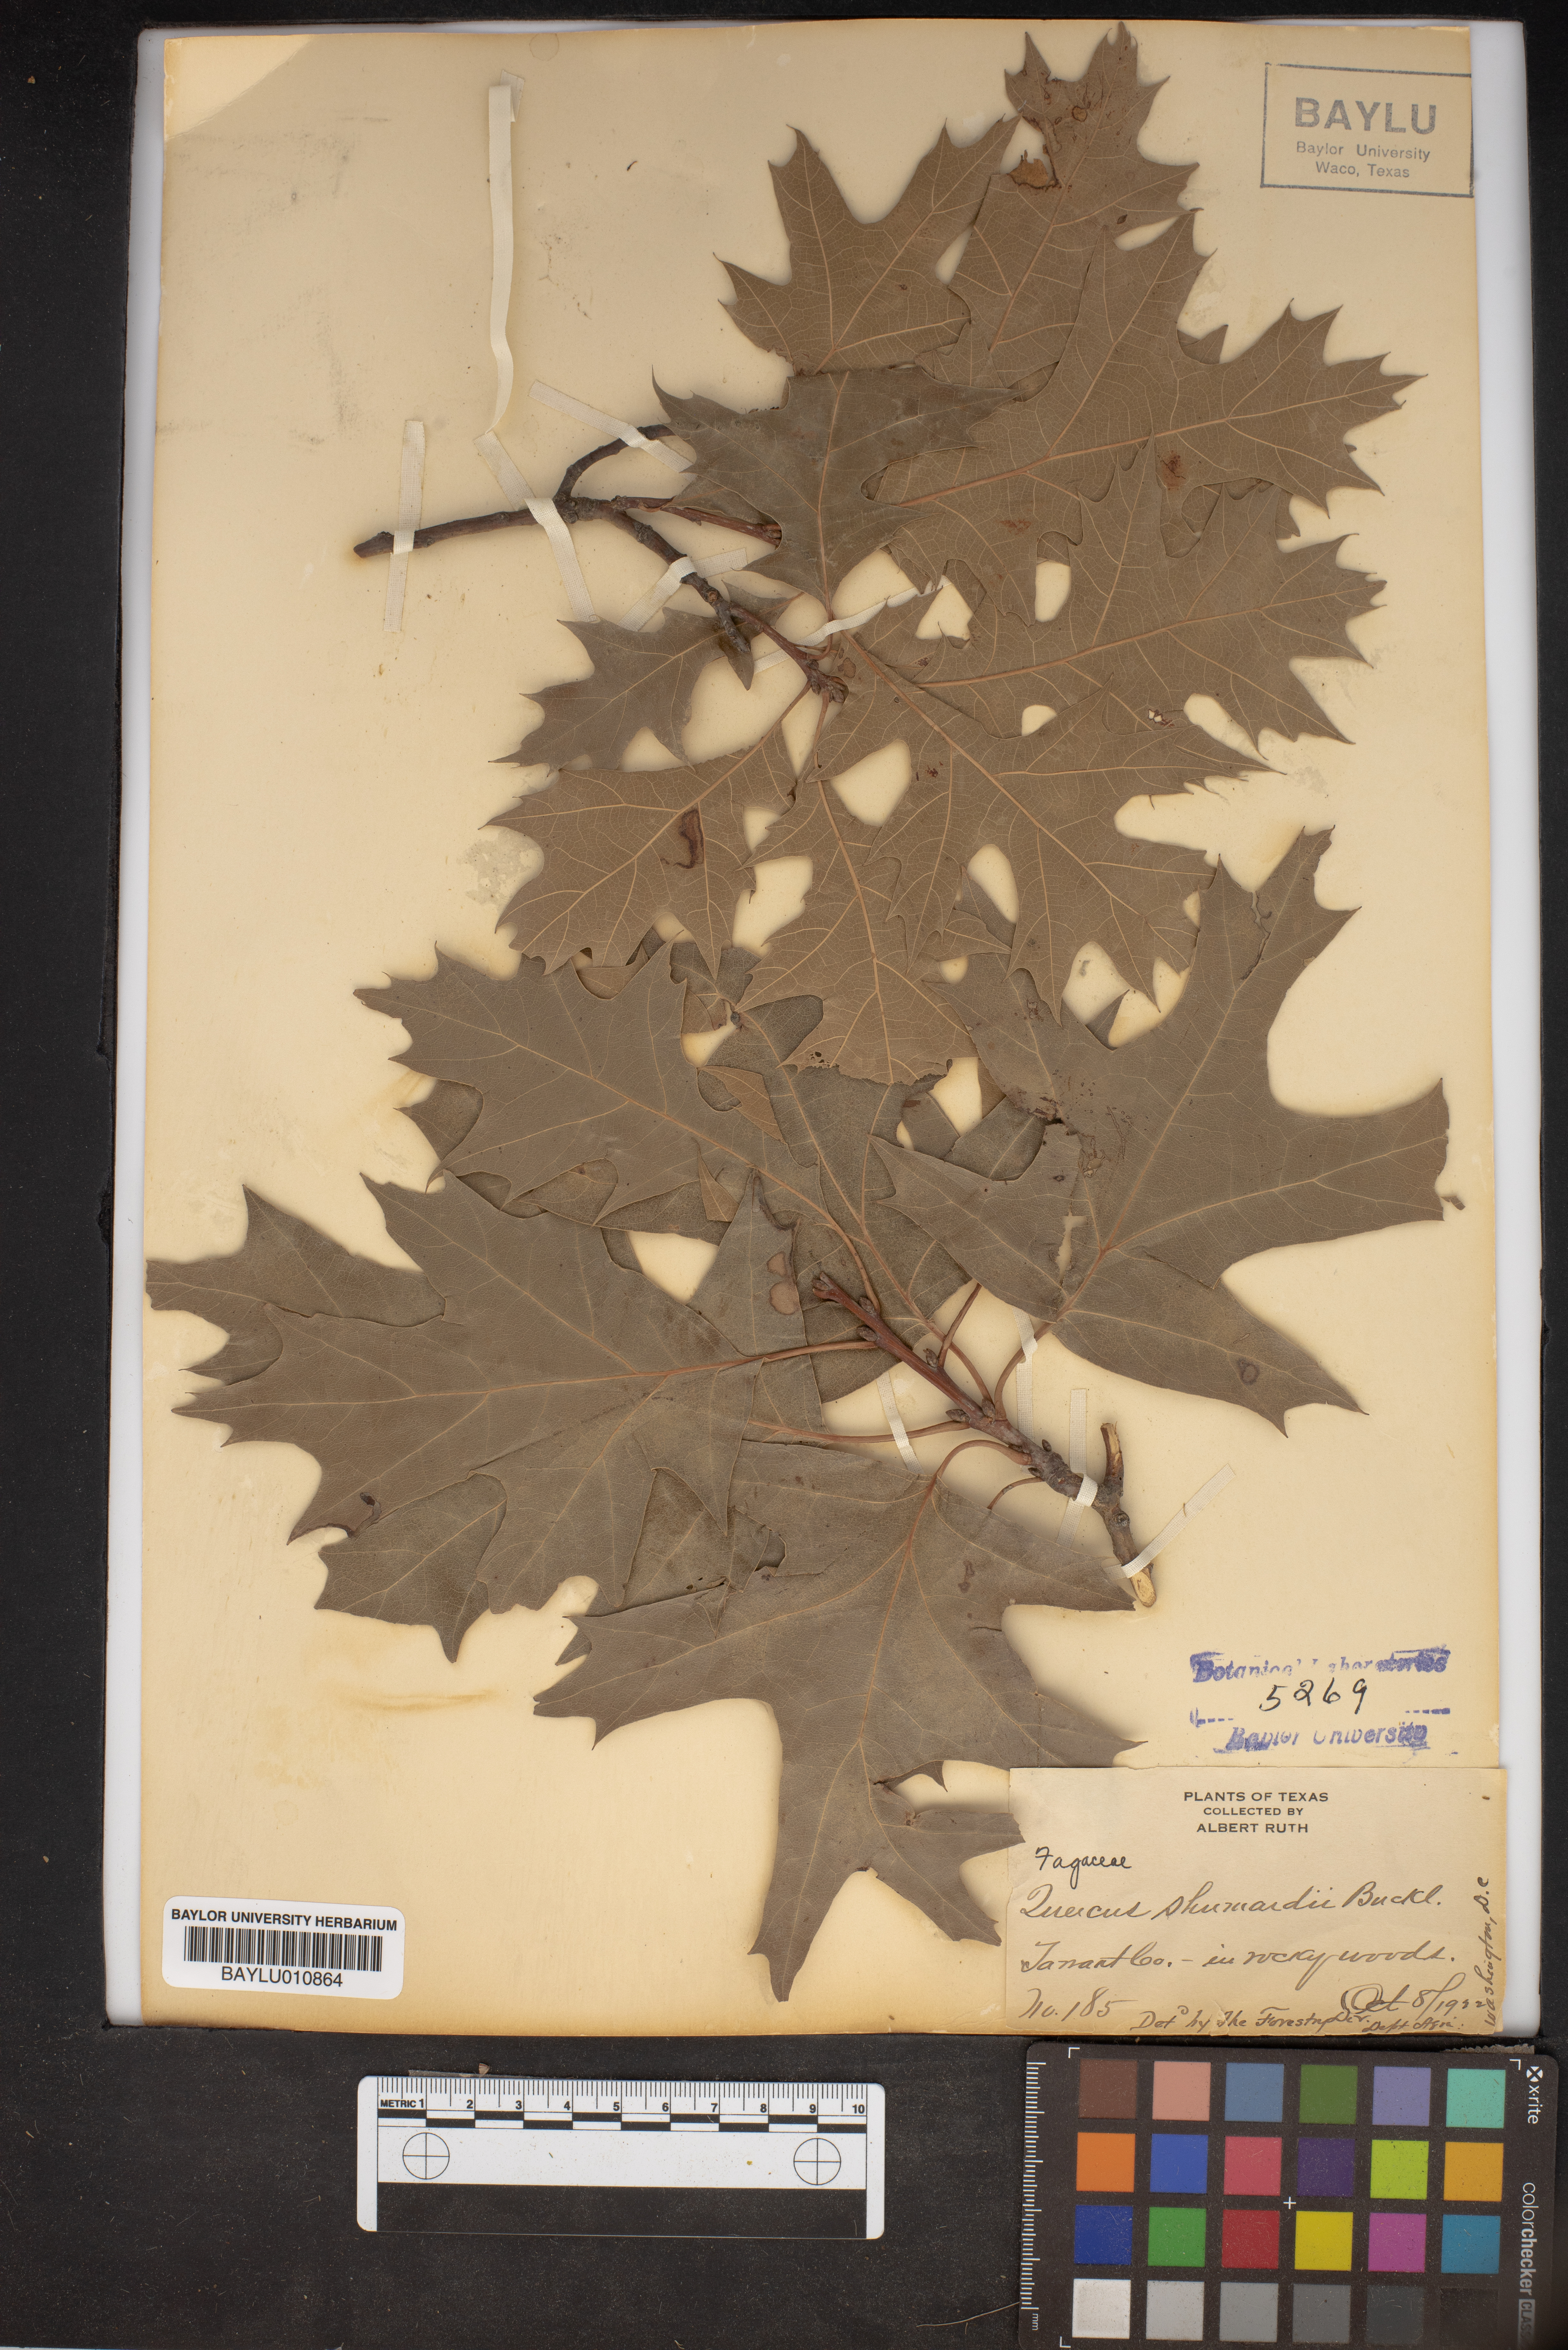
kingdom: Plantae
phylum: Tracheophyta
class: Magnoliopsida
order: Fagales
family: Fagaceae
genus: Quercus
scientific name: Quercus shumardii
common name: Shumard oak
